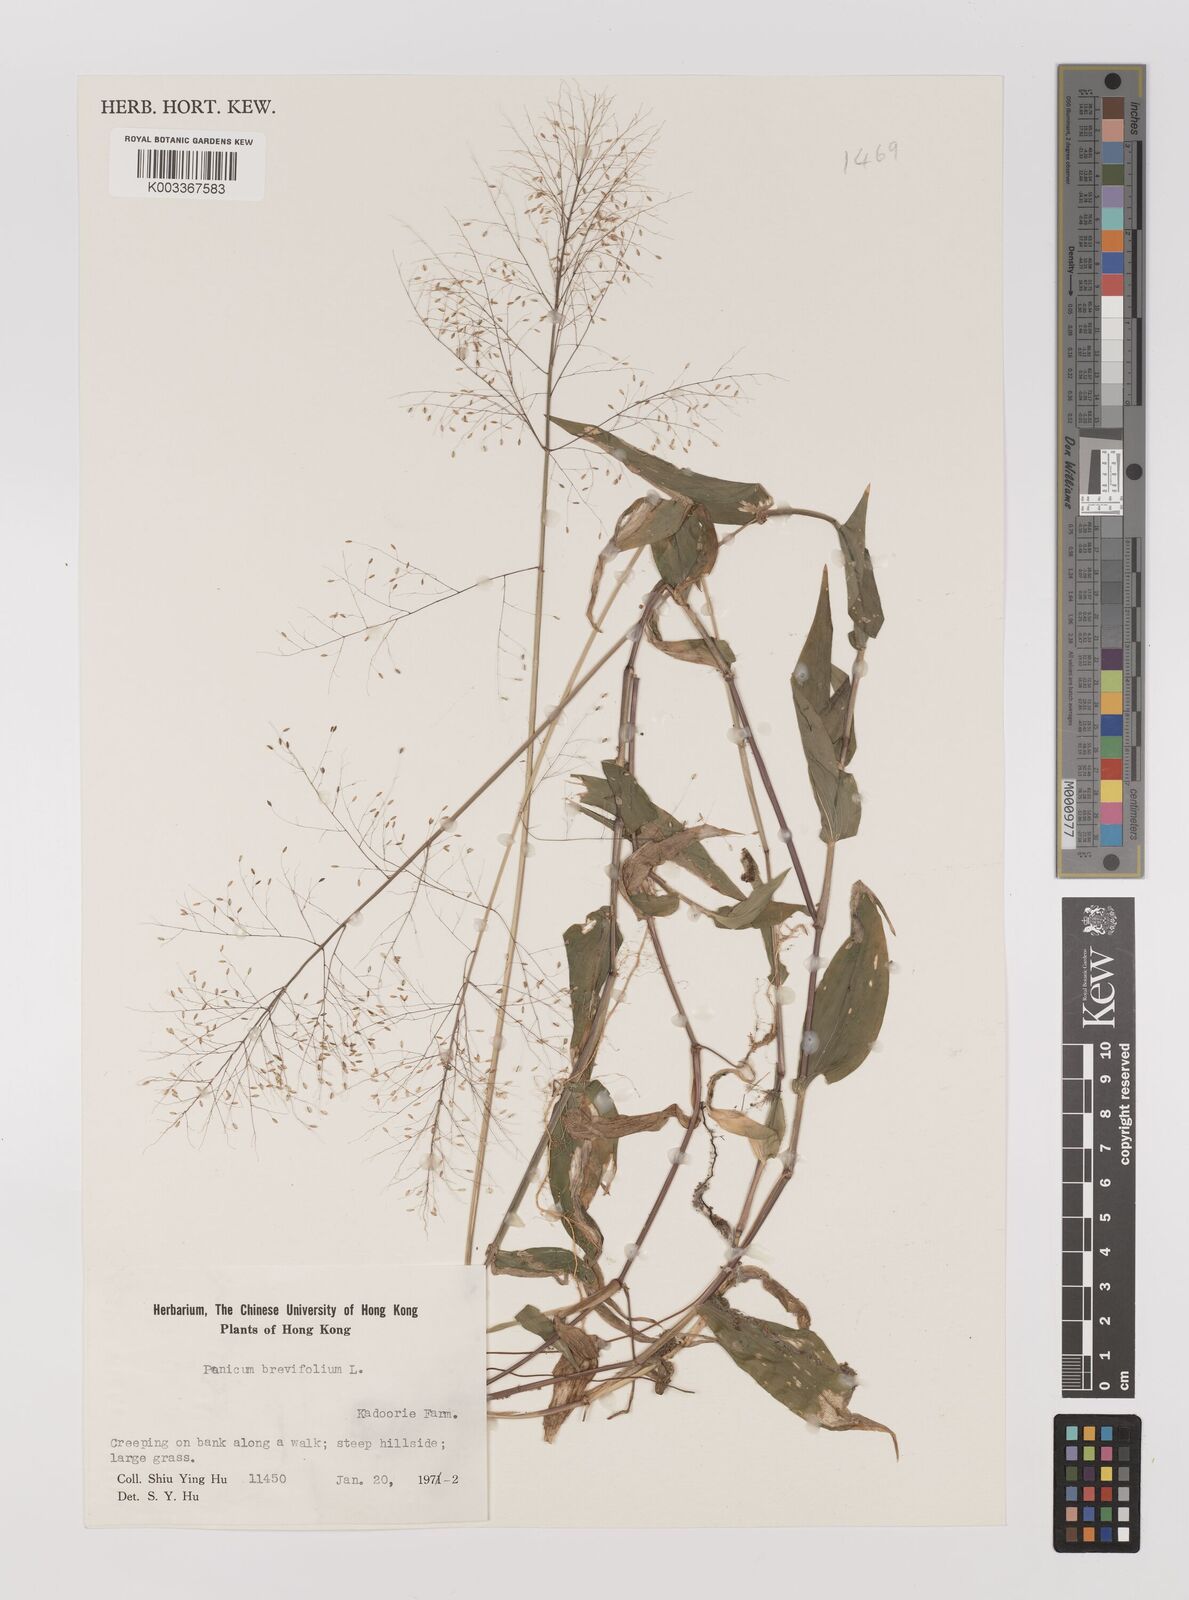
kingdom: Plantae
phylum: Tracheophyta
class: Liliopsida
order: Poales
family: Poaceae
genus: Panicum
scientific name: Panicum brevifolium
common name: Shortleaf panic grass
